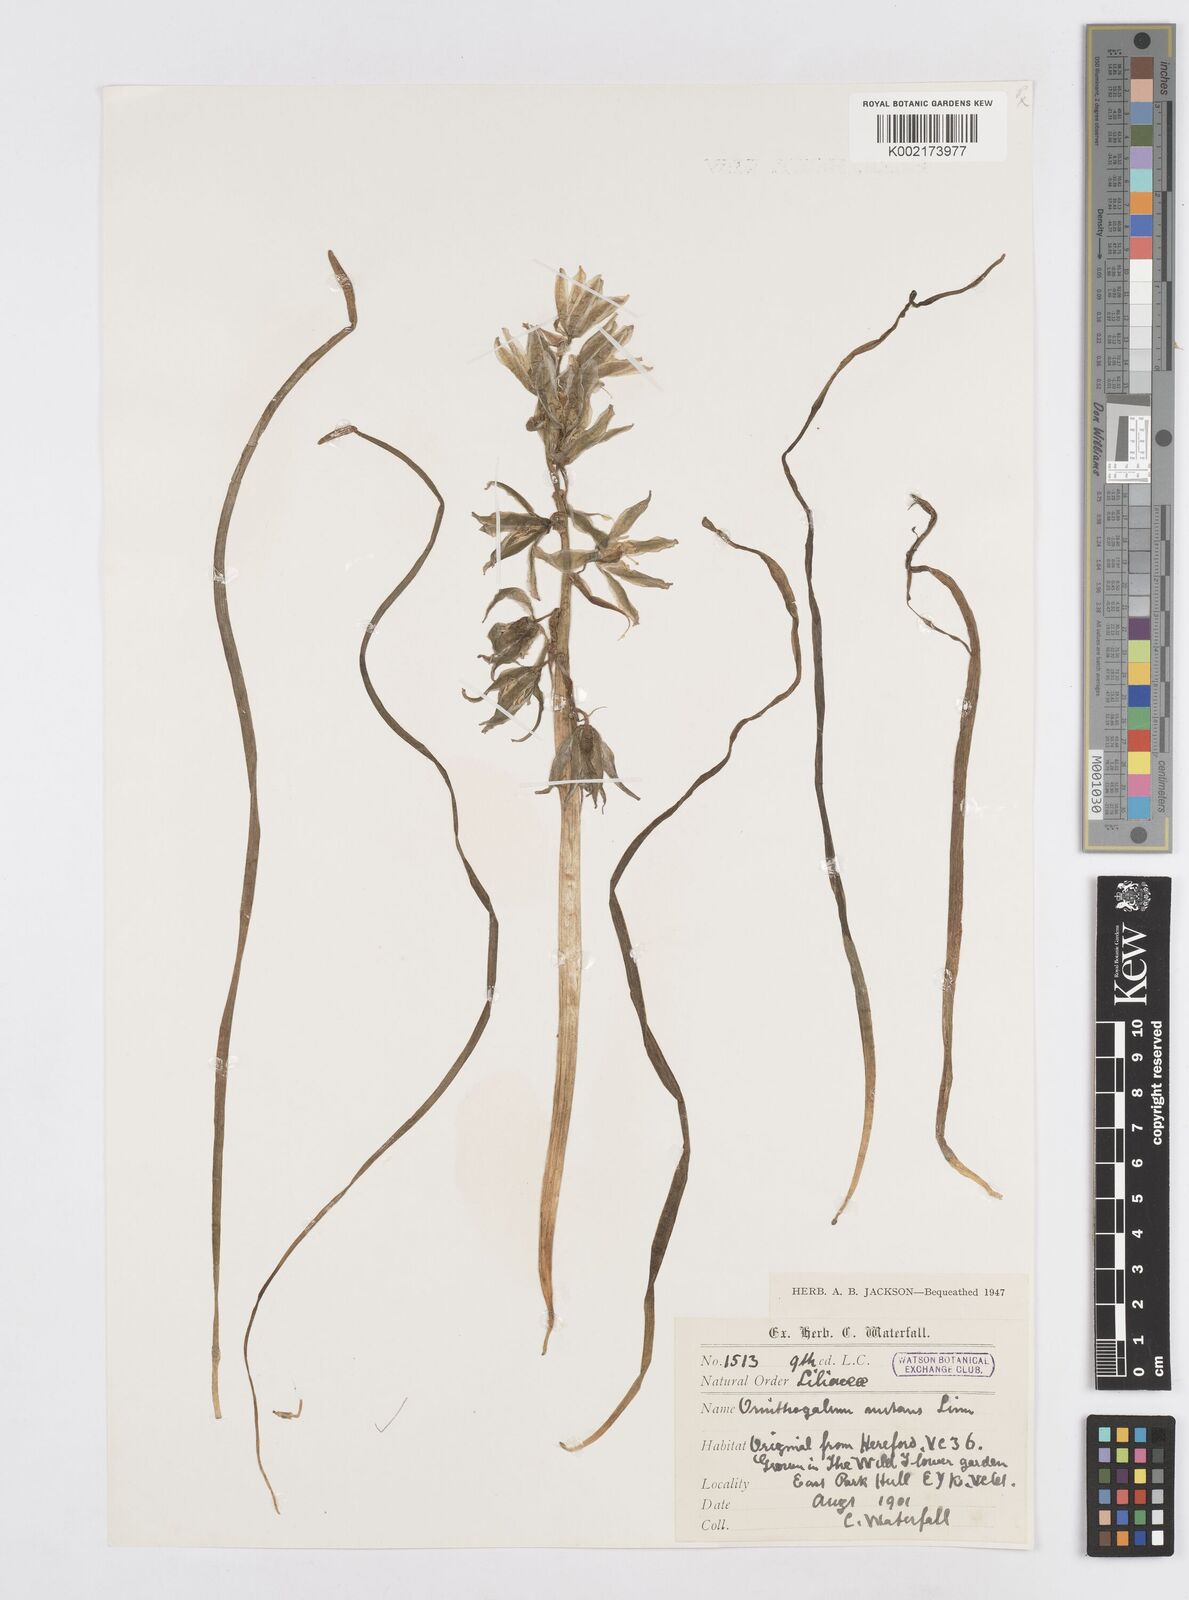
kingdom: Plantae
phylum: Tracheophyta
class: Liliopsida
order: Asparagales
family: Asparagaceae
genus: Ornithogalum
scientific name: Ornithogalum nutans
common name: Drooping star-of-bethlehem
